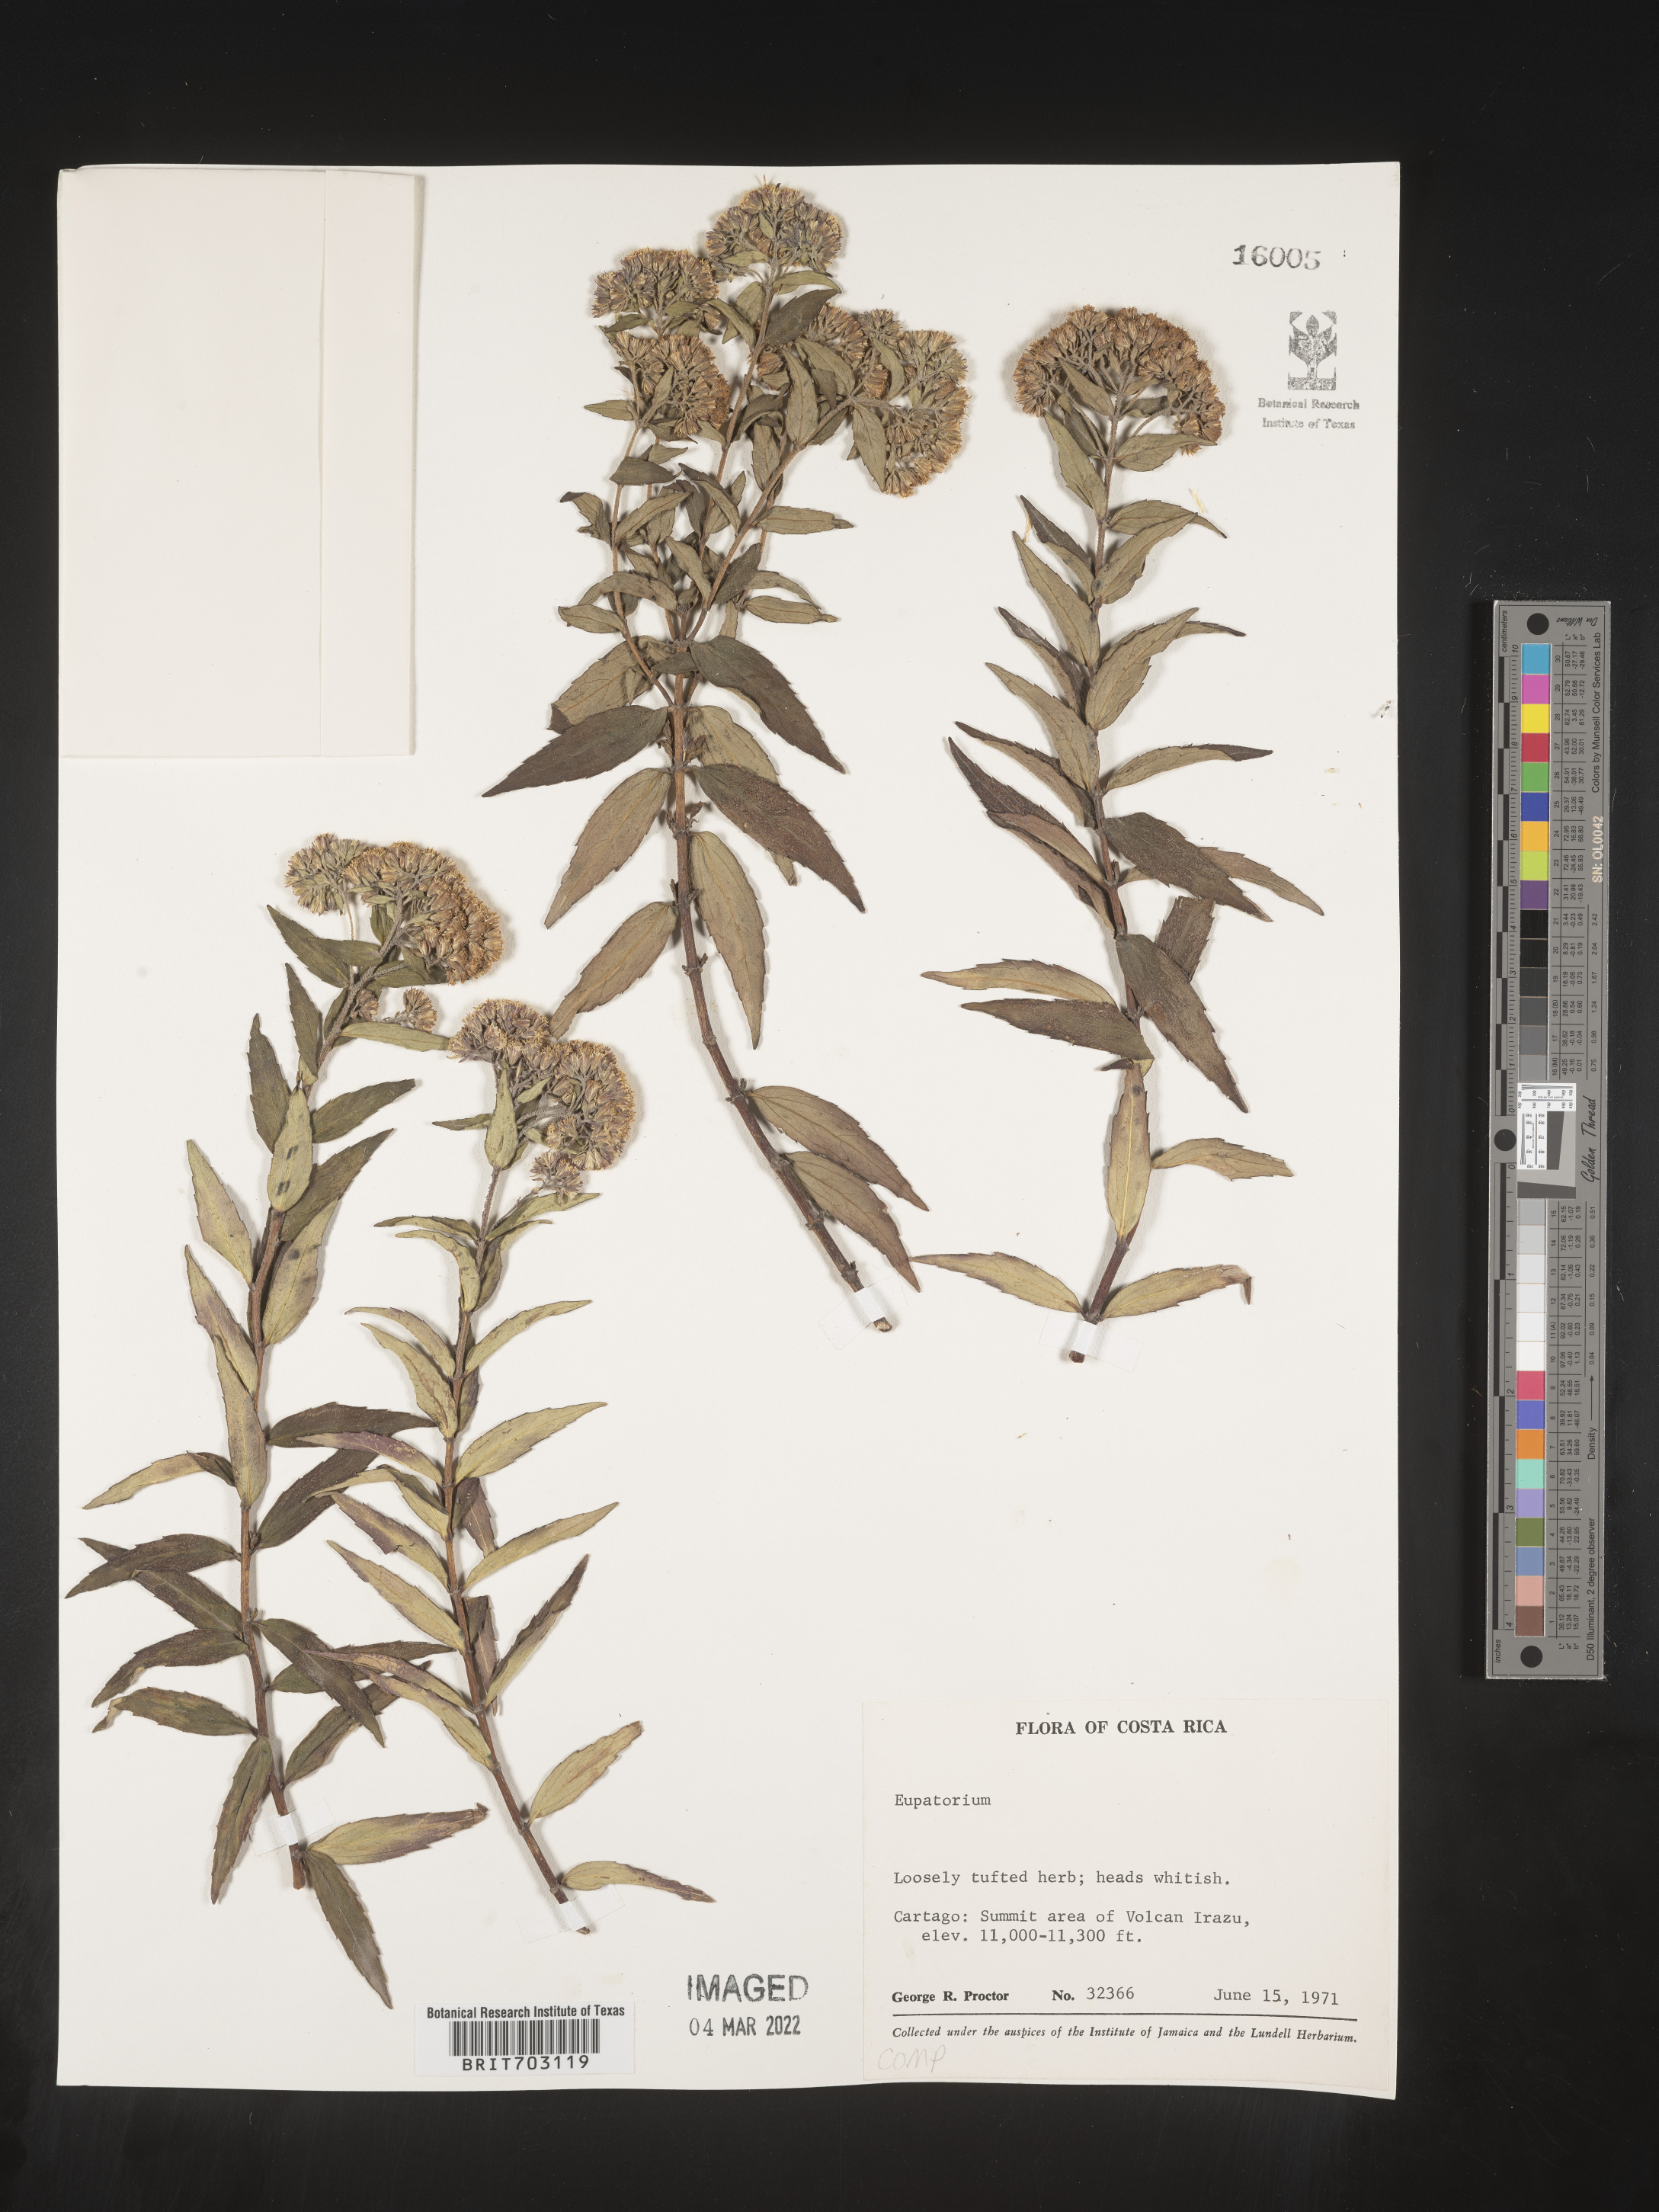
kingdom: Plantae
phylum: Tracheophyta
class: Magnoliopsida
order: Asterales
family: Asteraceae
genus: Eupatorium
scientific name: Eupatorium
